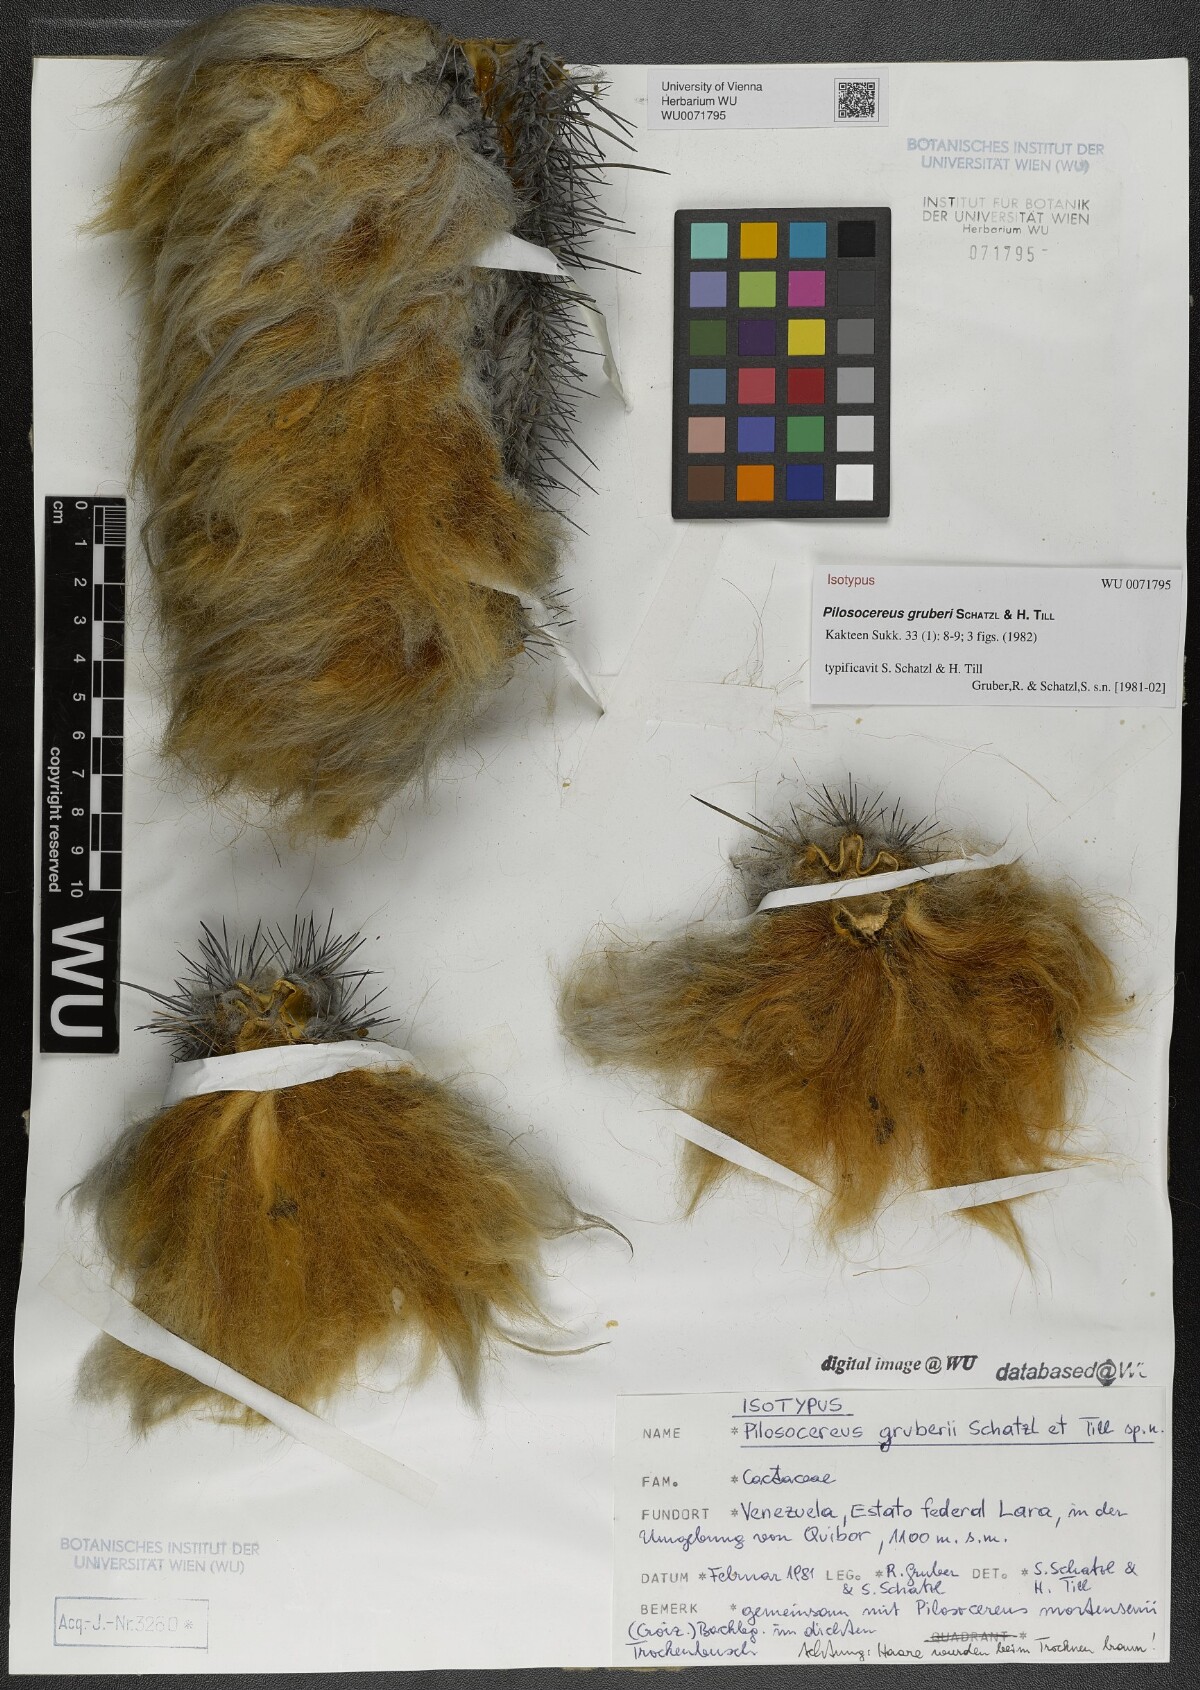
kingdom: Plantae
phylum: Tracheophyta
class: Magnoliopsida
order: Caryophyllales
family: Cactaceae
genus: Cereus
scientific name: Cereus mortensenii
